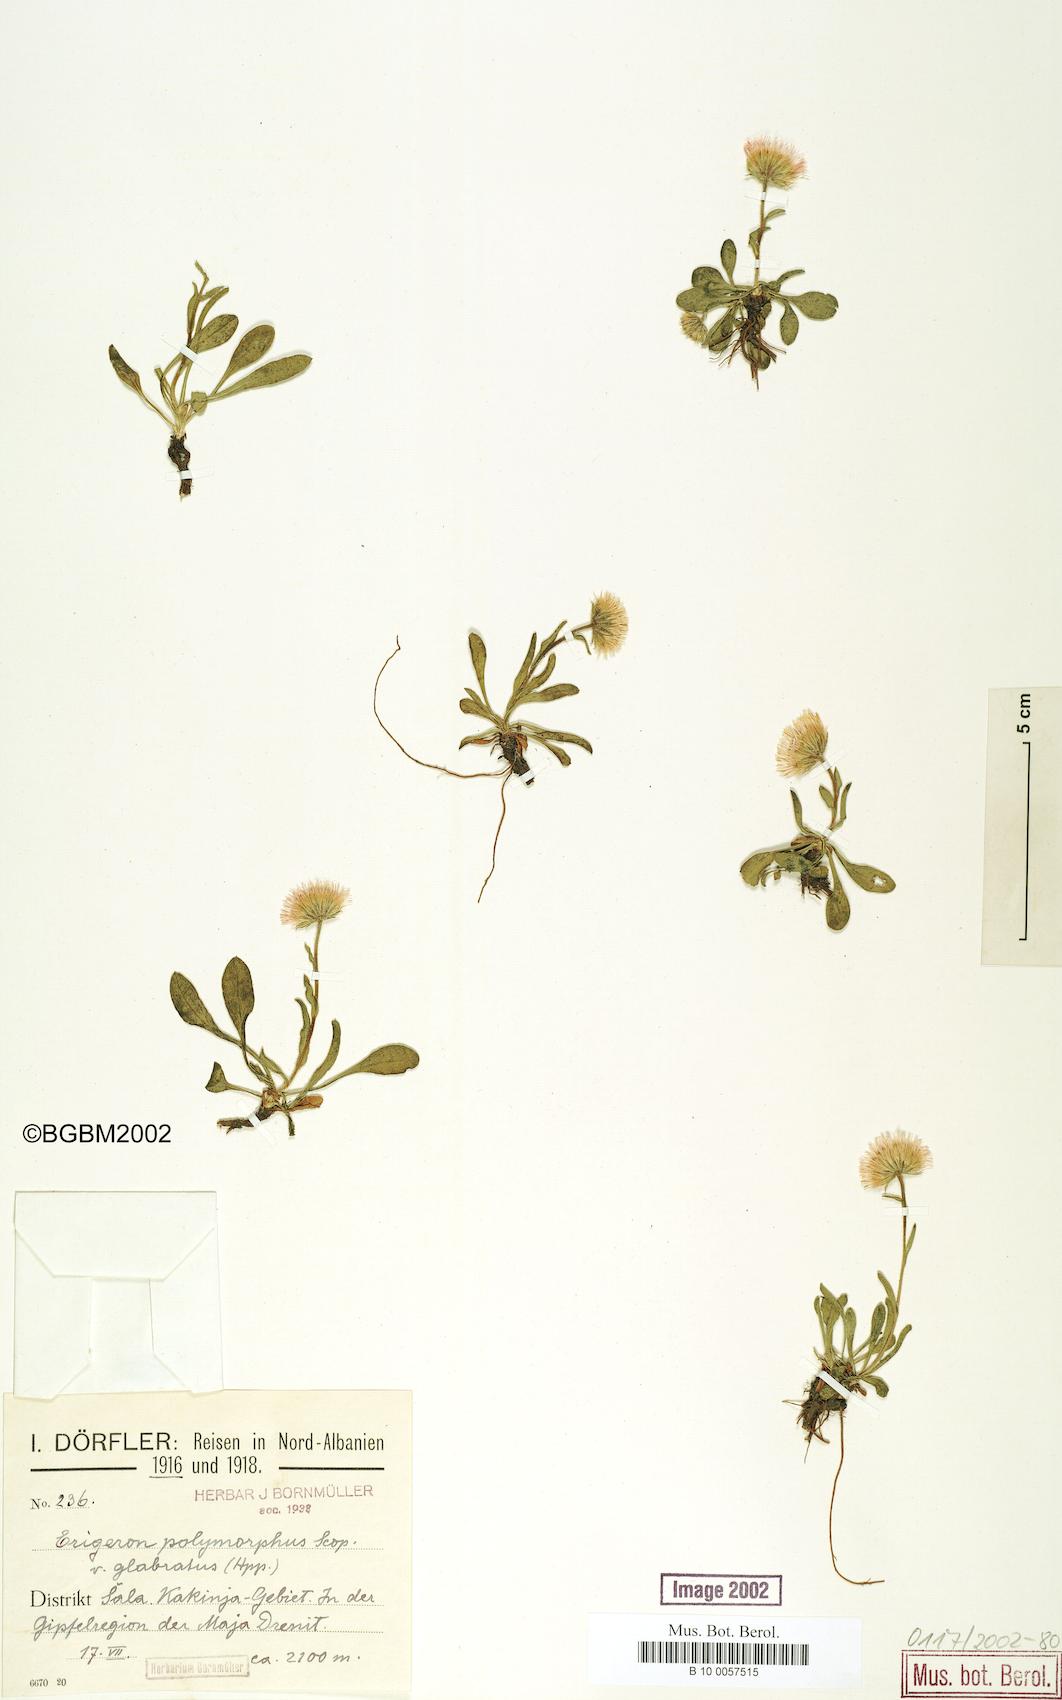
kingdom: Plantae
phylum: Tracheophyta
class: Magnoliopsida
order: Asterales
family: Asteraceae
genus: Erigeron
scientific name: Erigeron glabratus
